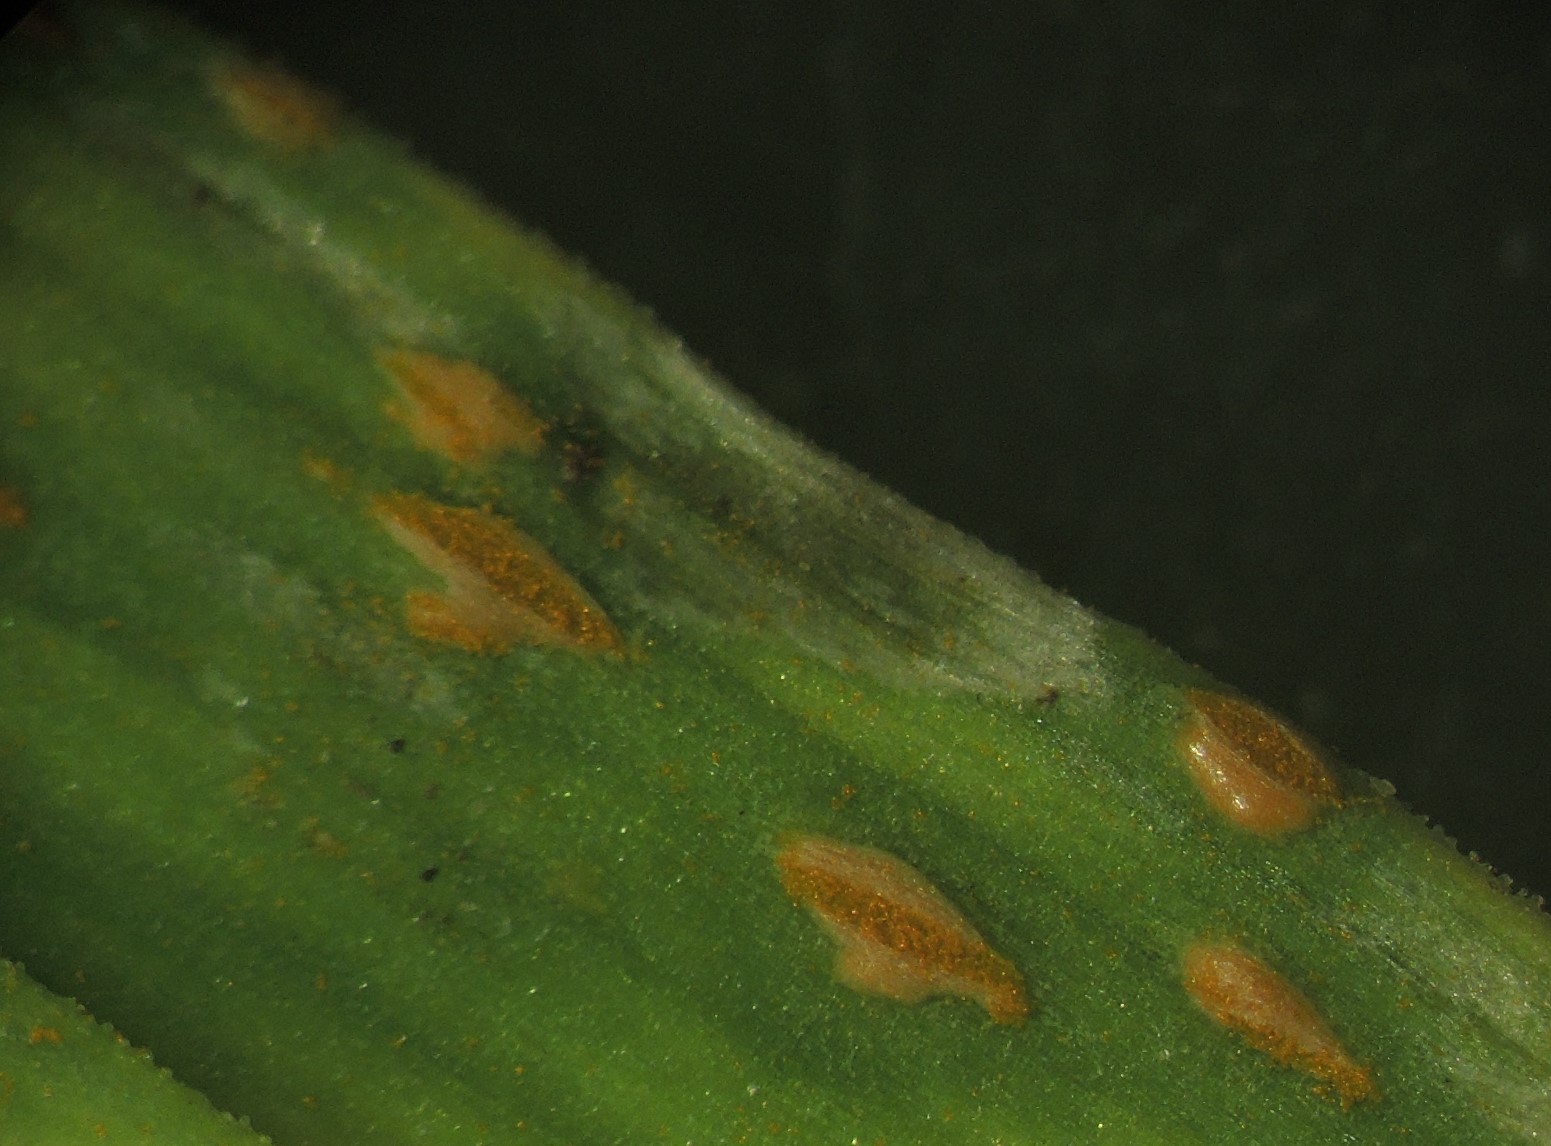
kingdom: Fungi
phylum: Basidiomycota
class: Pucciniomycetes
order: Pucciniales
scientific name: Pucciniales
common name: rustsvampeordenen
